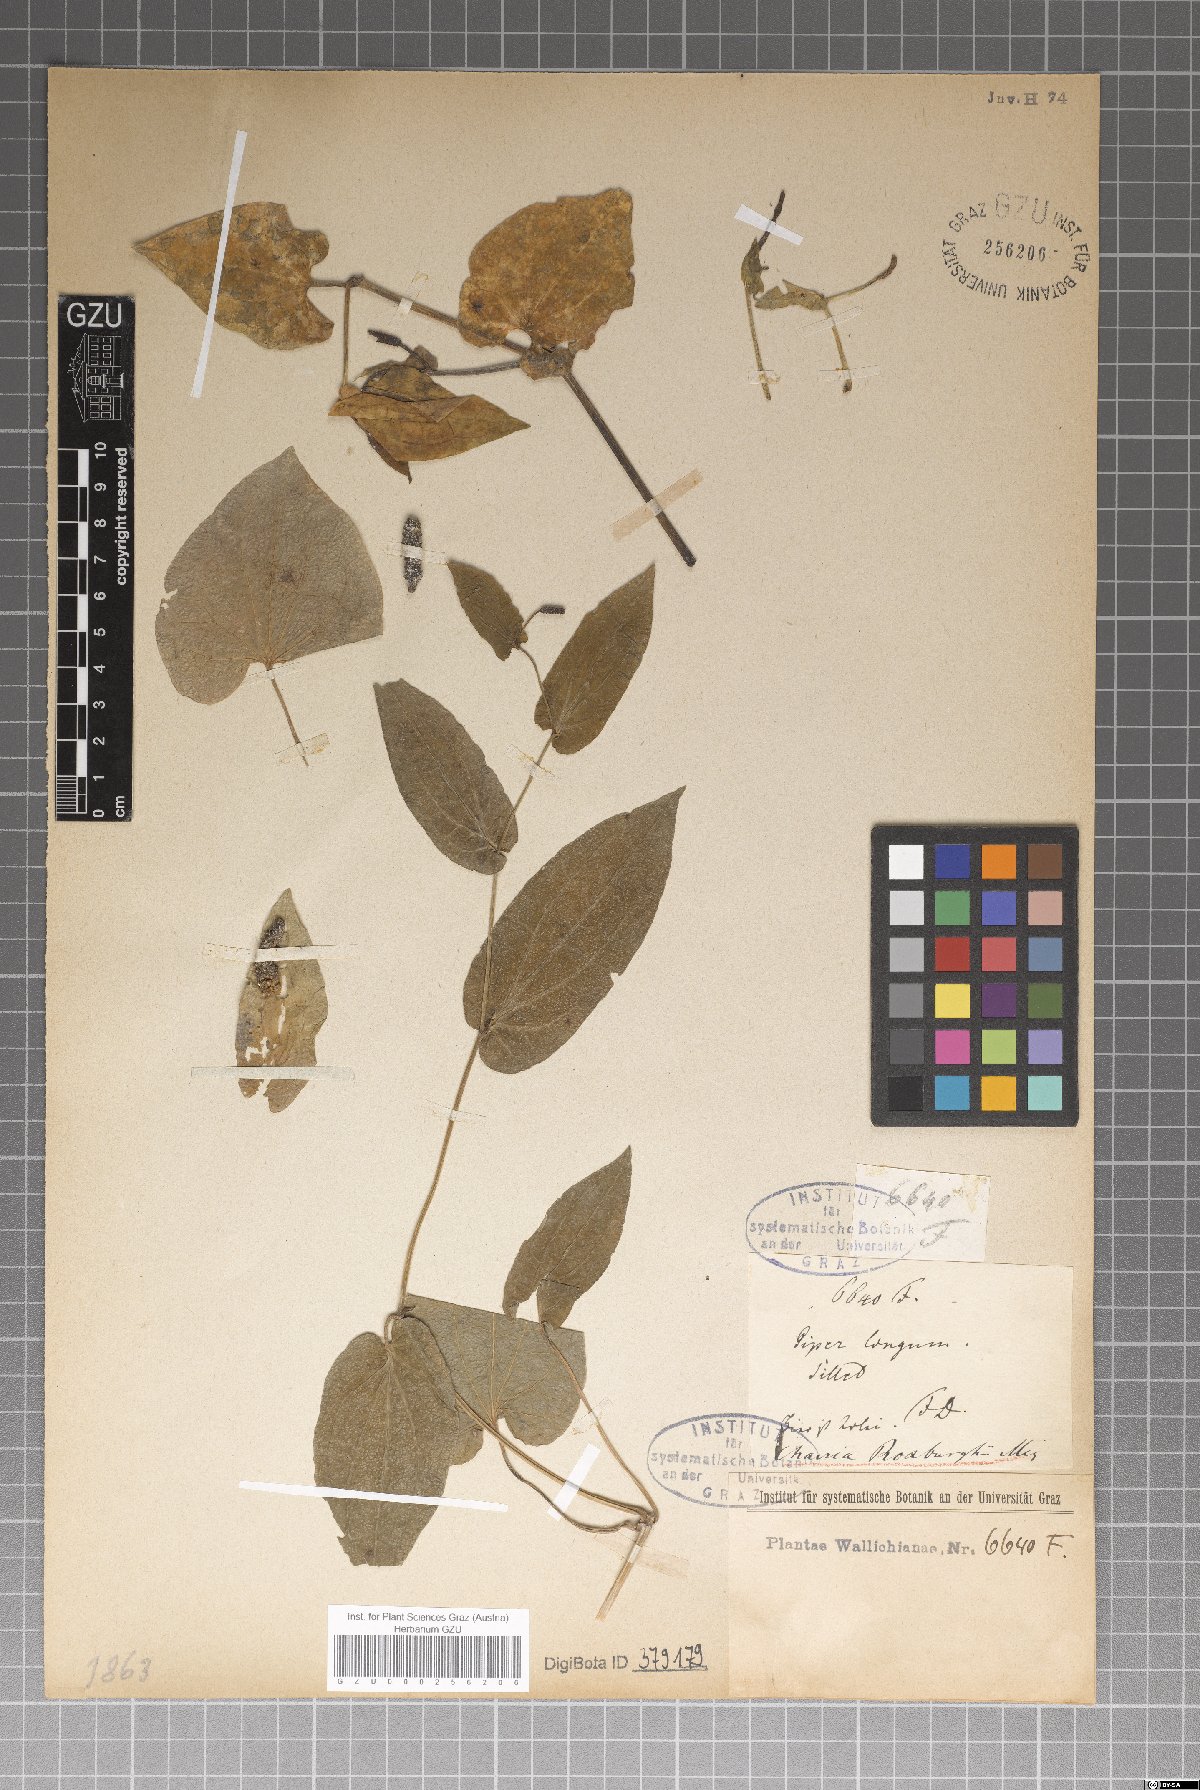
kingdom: Plantae
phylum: Tracheophyta
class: Magnoliopsida
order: Piperales
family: Piperaceae
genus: Piper
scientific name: Piper longum
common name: Long pepper
